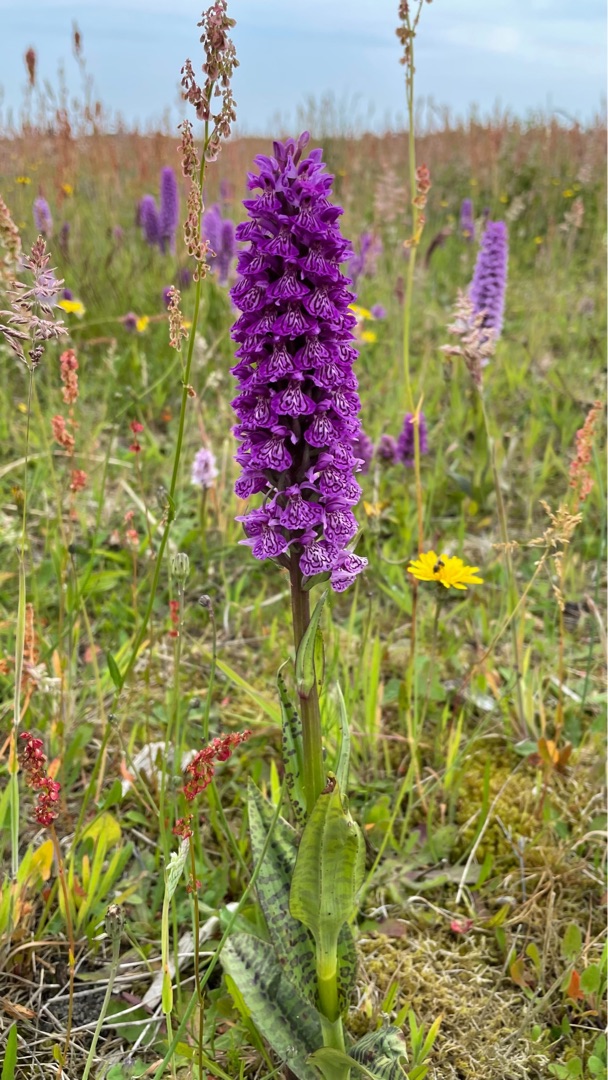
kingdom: Plantae
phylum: Tracheophyta
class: Liliopsida
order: Asparagales
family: Orchidaceae
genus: Dactylorhiza
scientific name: Dactylorhiza majalis
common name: Ringplettet gøgeurt
